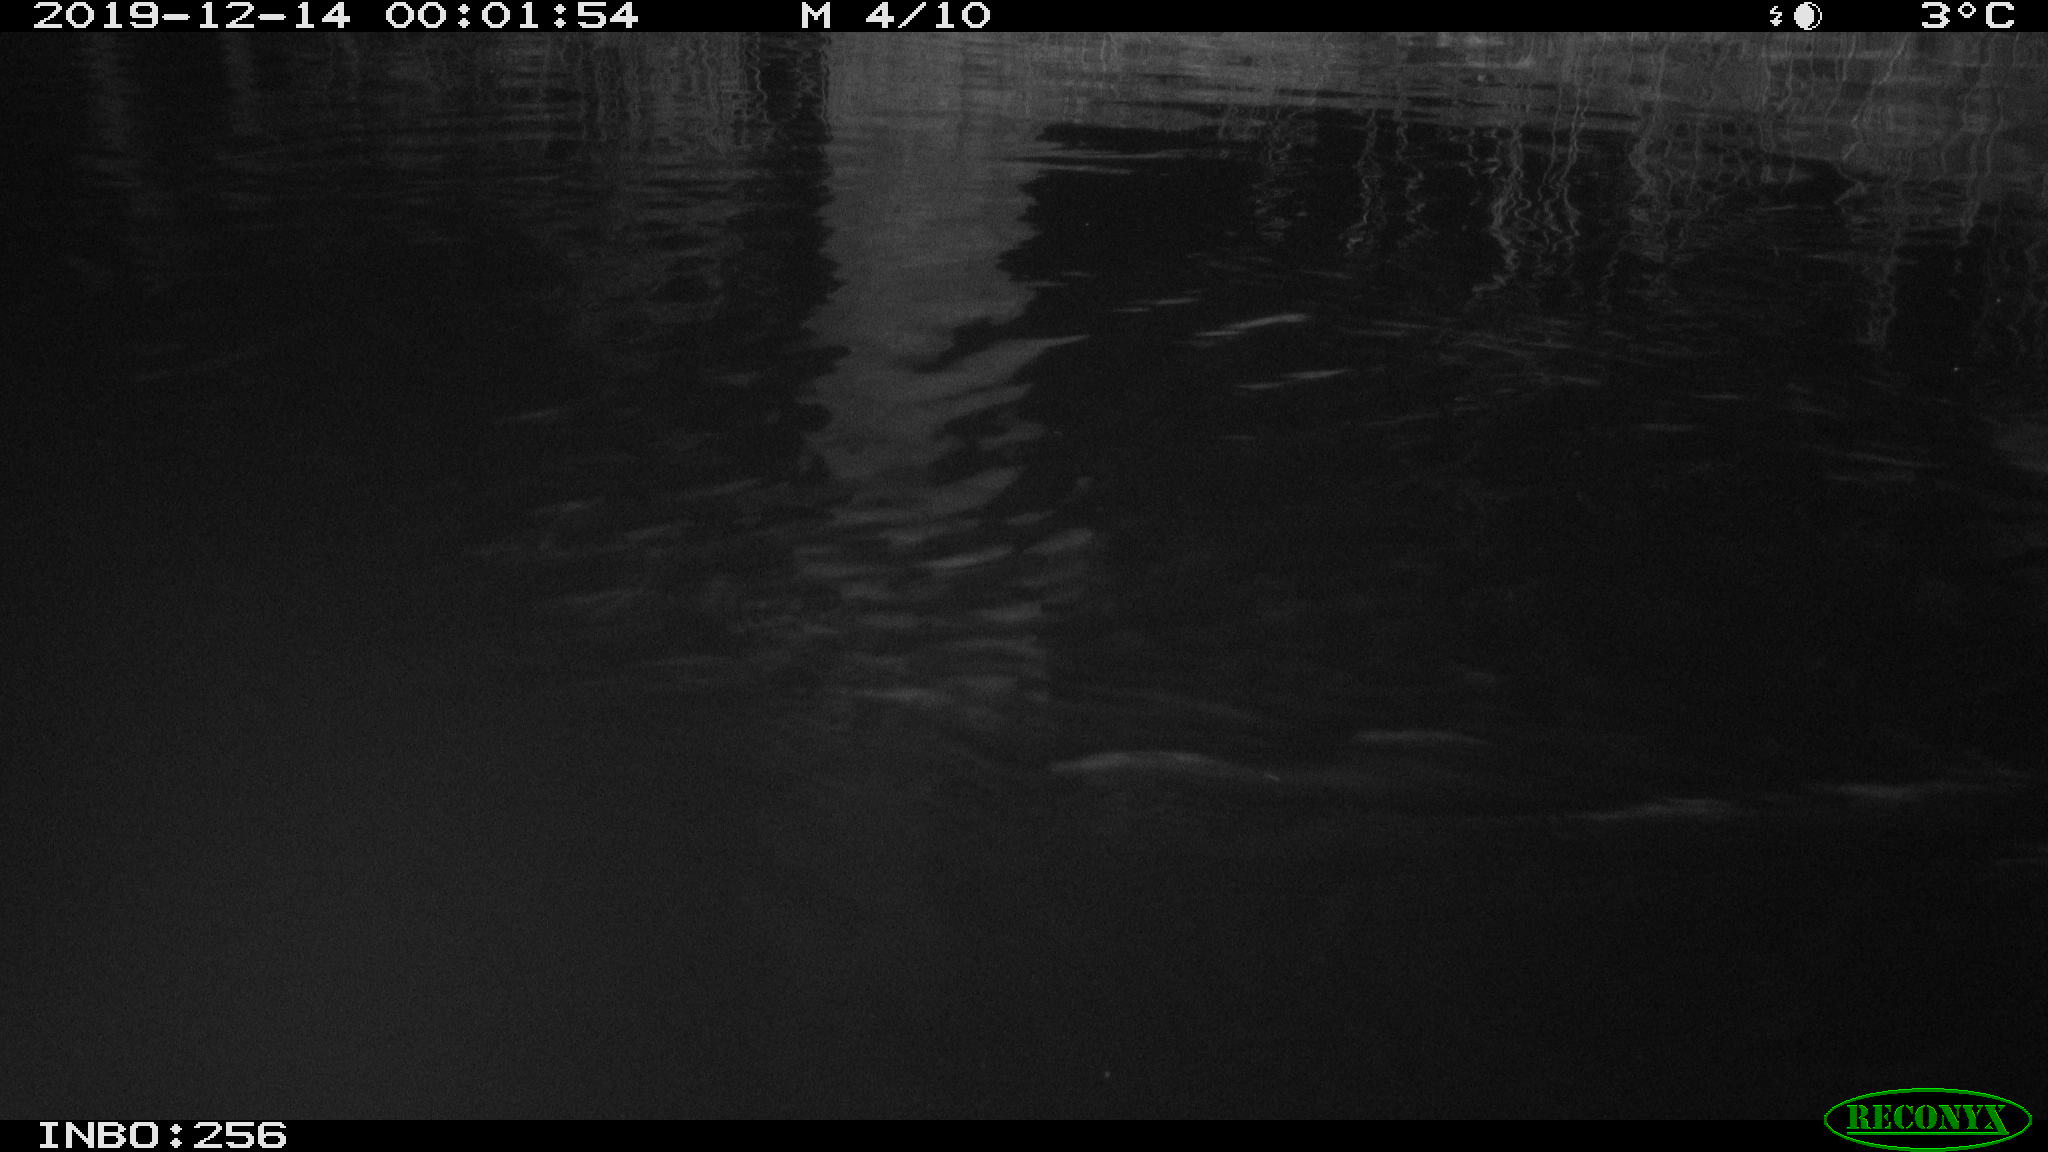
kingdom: Animalia
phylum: Chordata
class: Mammalia
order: Rodentia
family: Muridae
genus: Rattus
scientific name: Rattus norvegicus
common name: Brown rat
